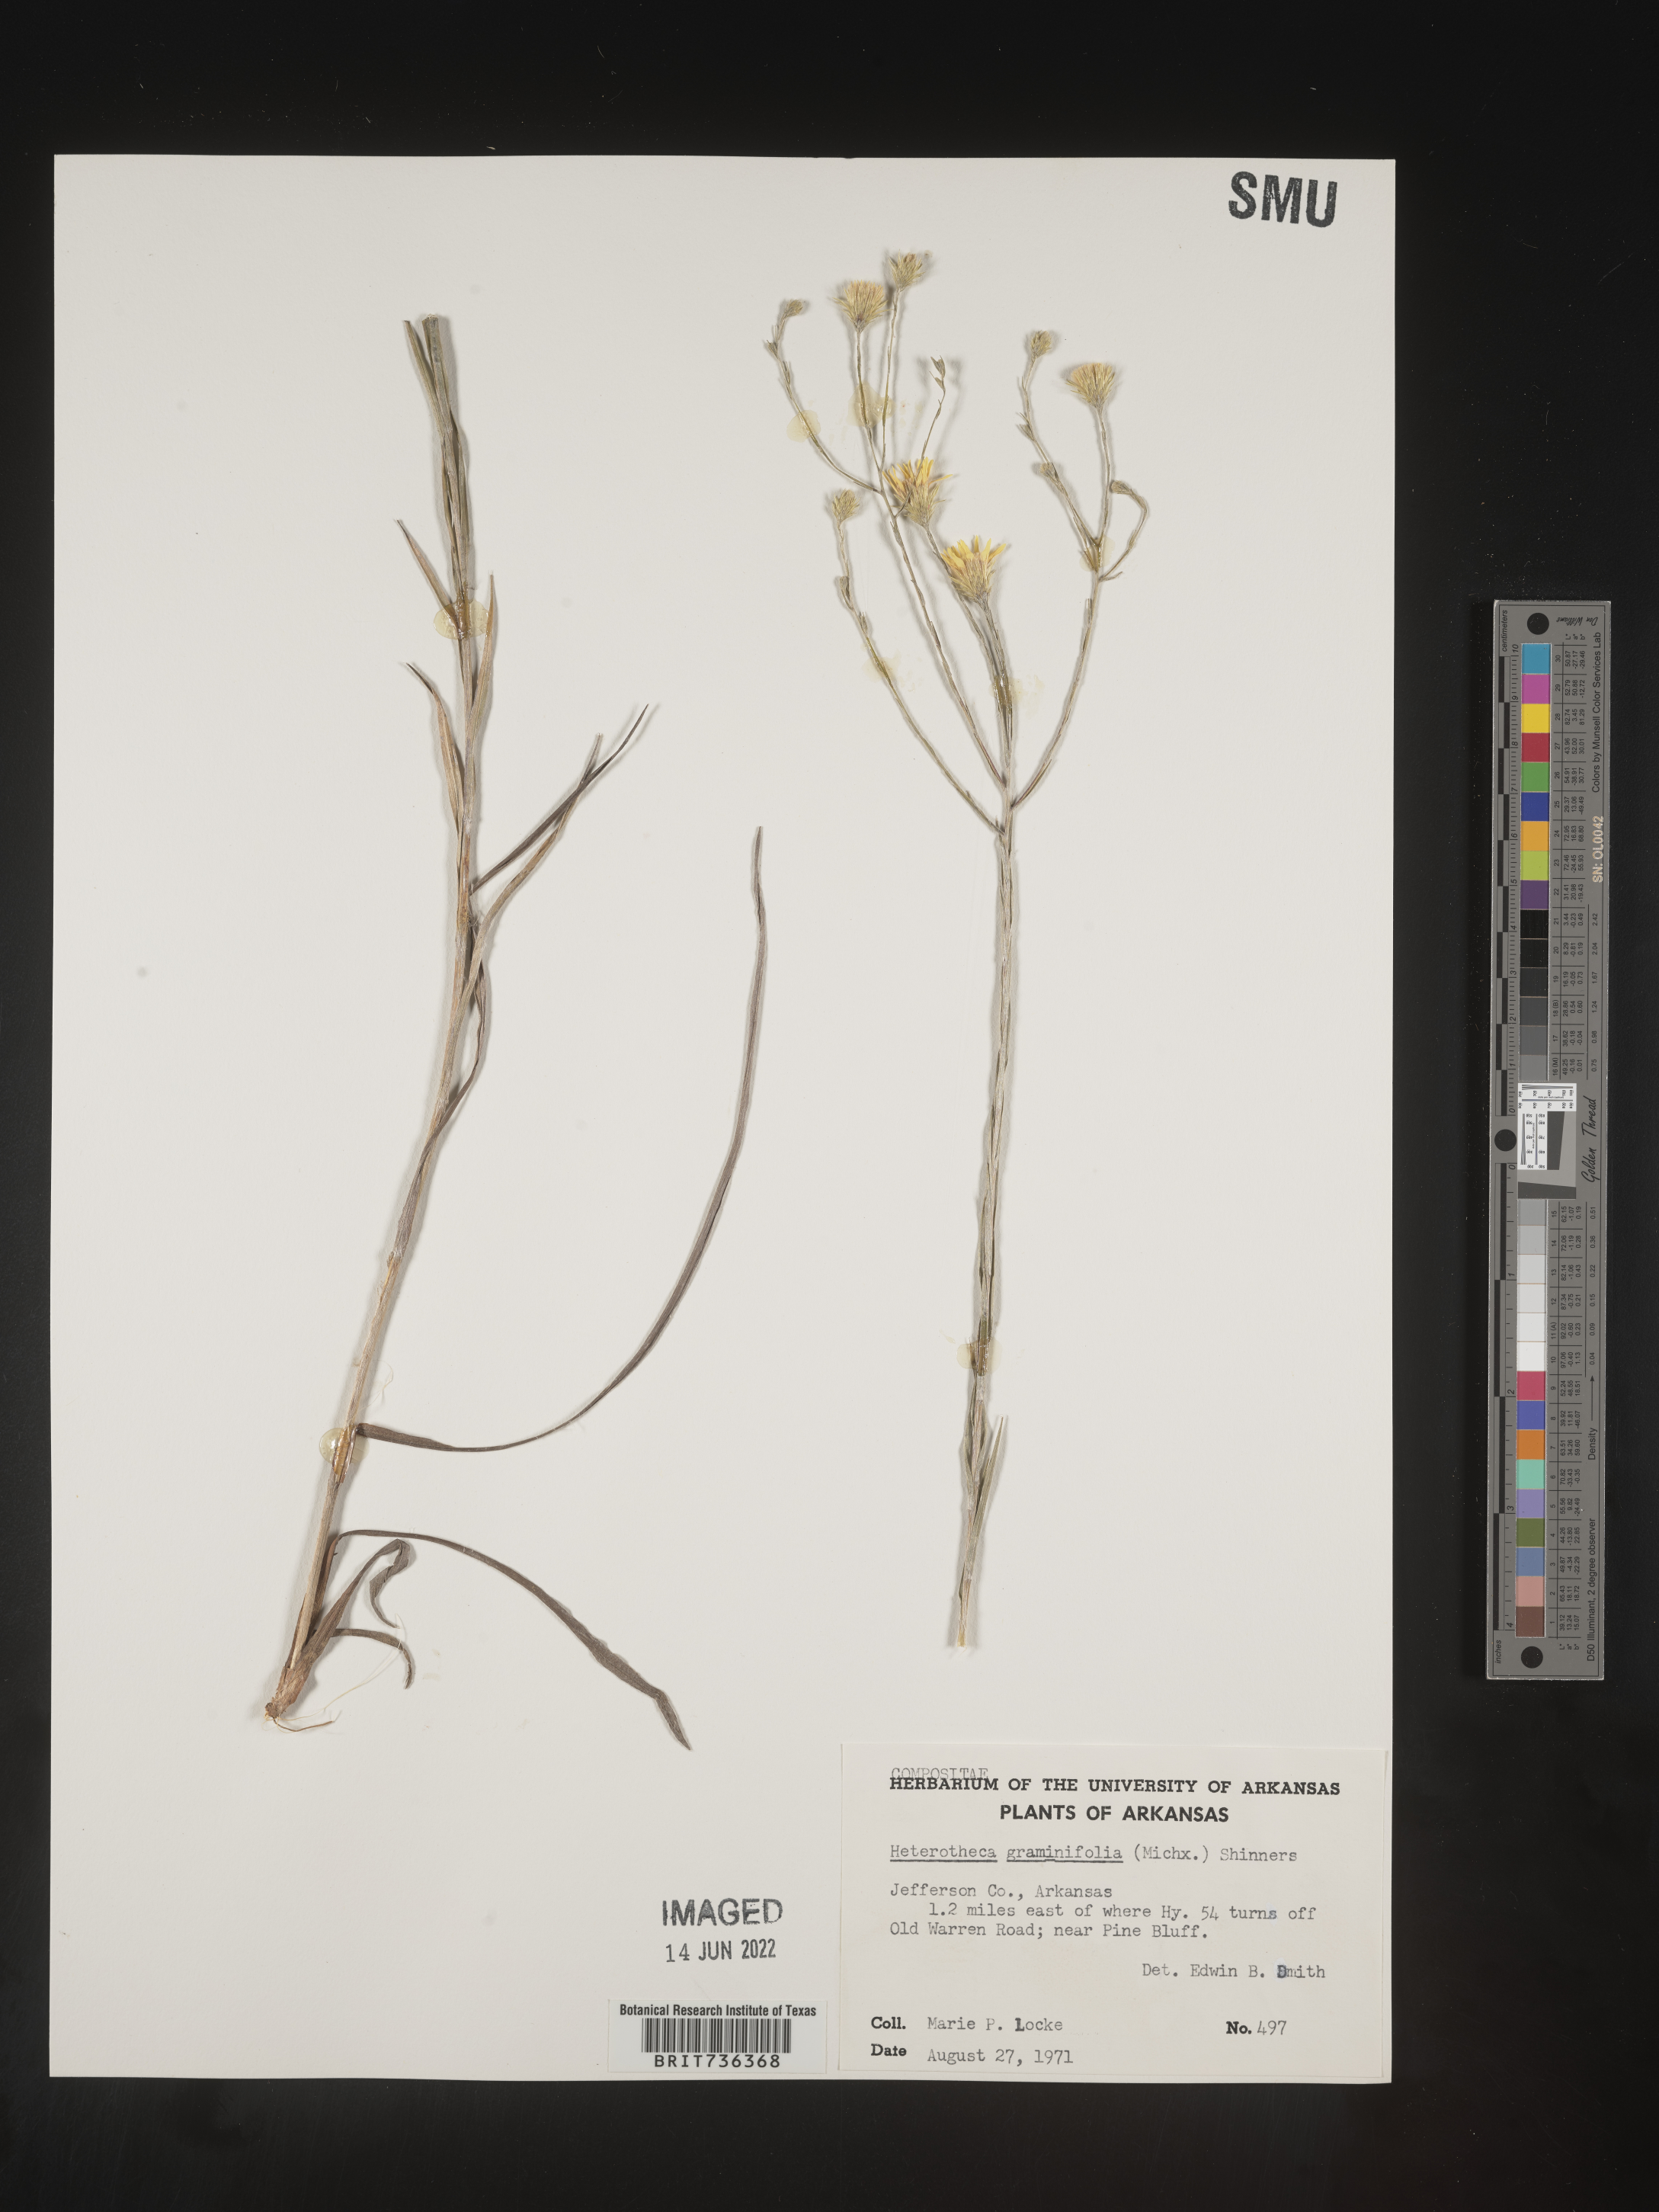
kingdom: Plantae
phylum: Tracheophyta
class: Magnoliopsida
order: Asterales
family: Asteraceae
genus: Pityopsis
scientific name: Pityopsis tenuifolia
